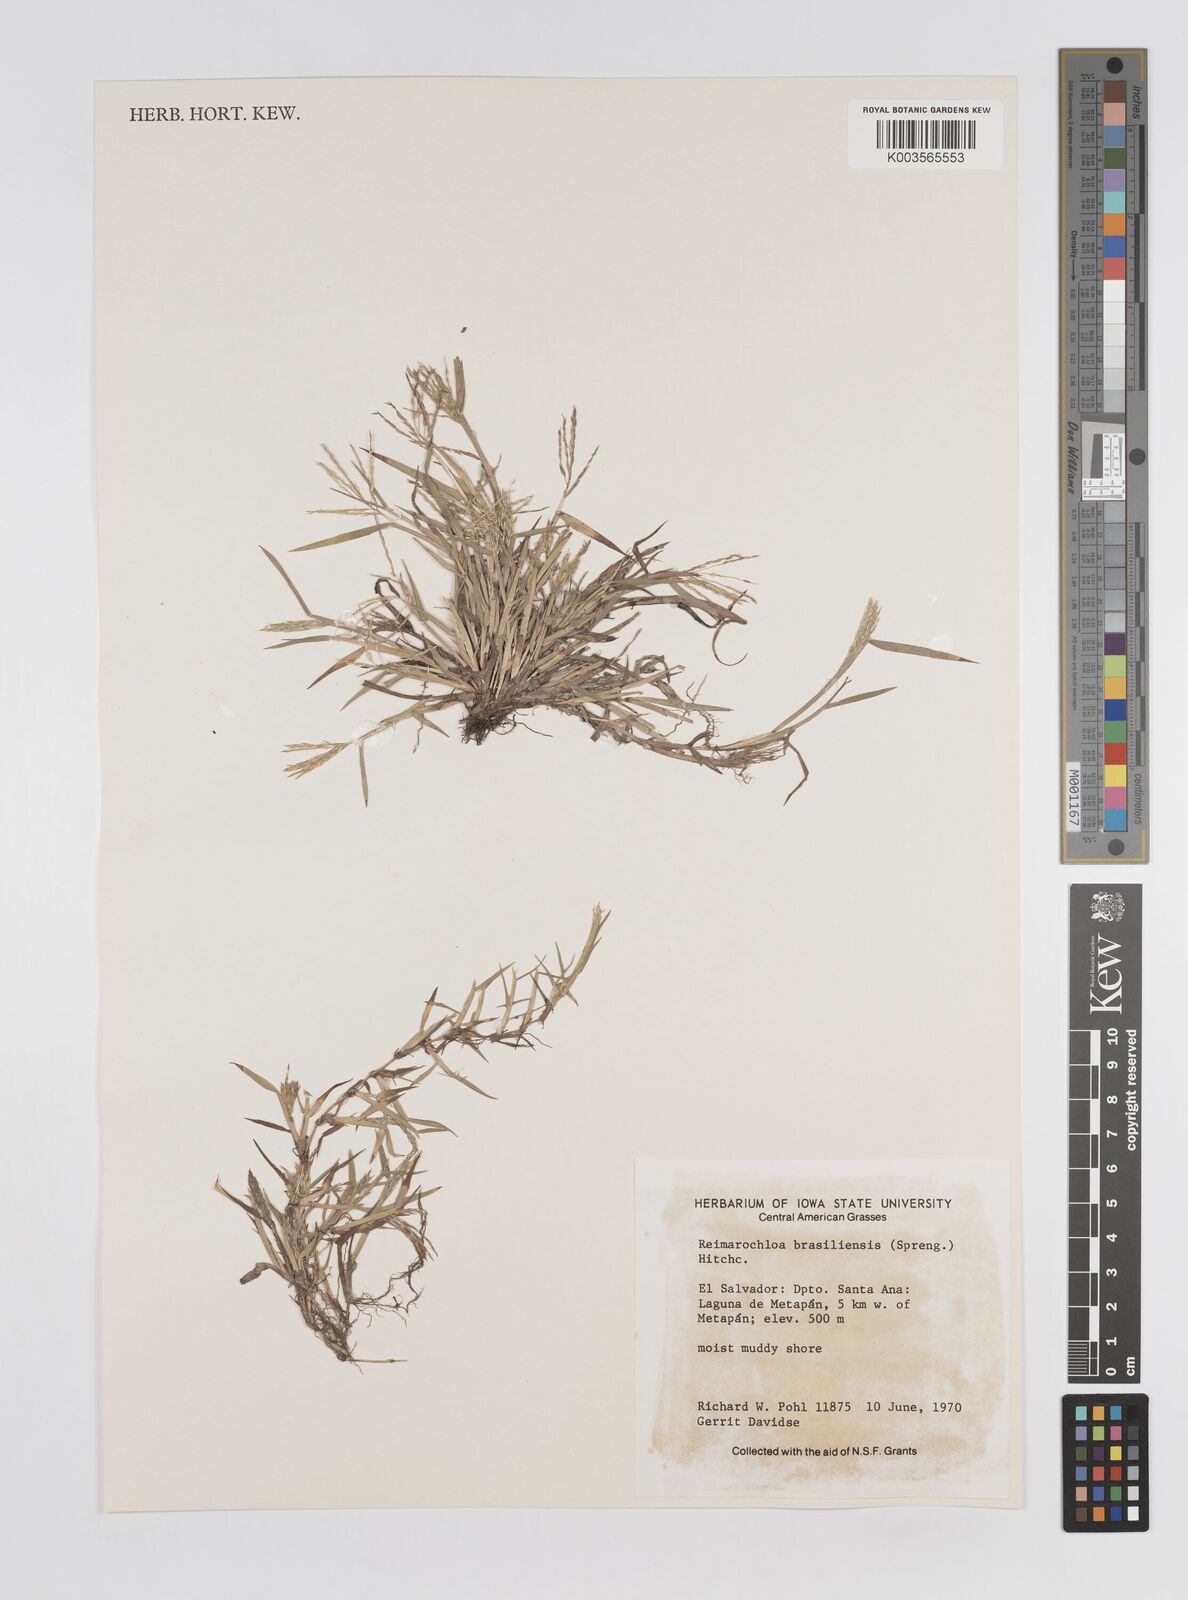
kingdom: Plantae
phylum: Tracheophyta
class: Liliopsida
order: Poales
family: Poaceae
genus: Paspalum
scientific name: Paspalum stagnophilum
